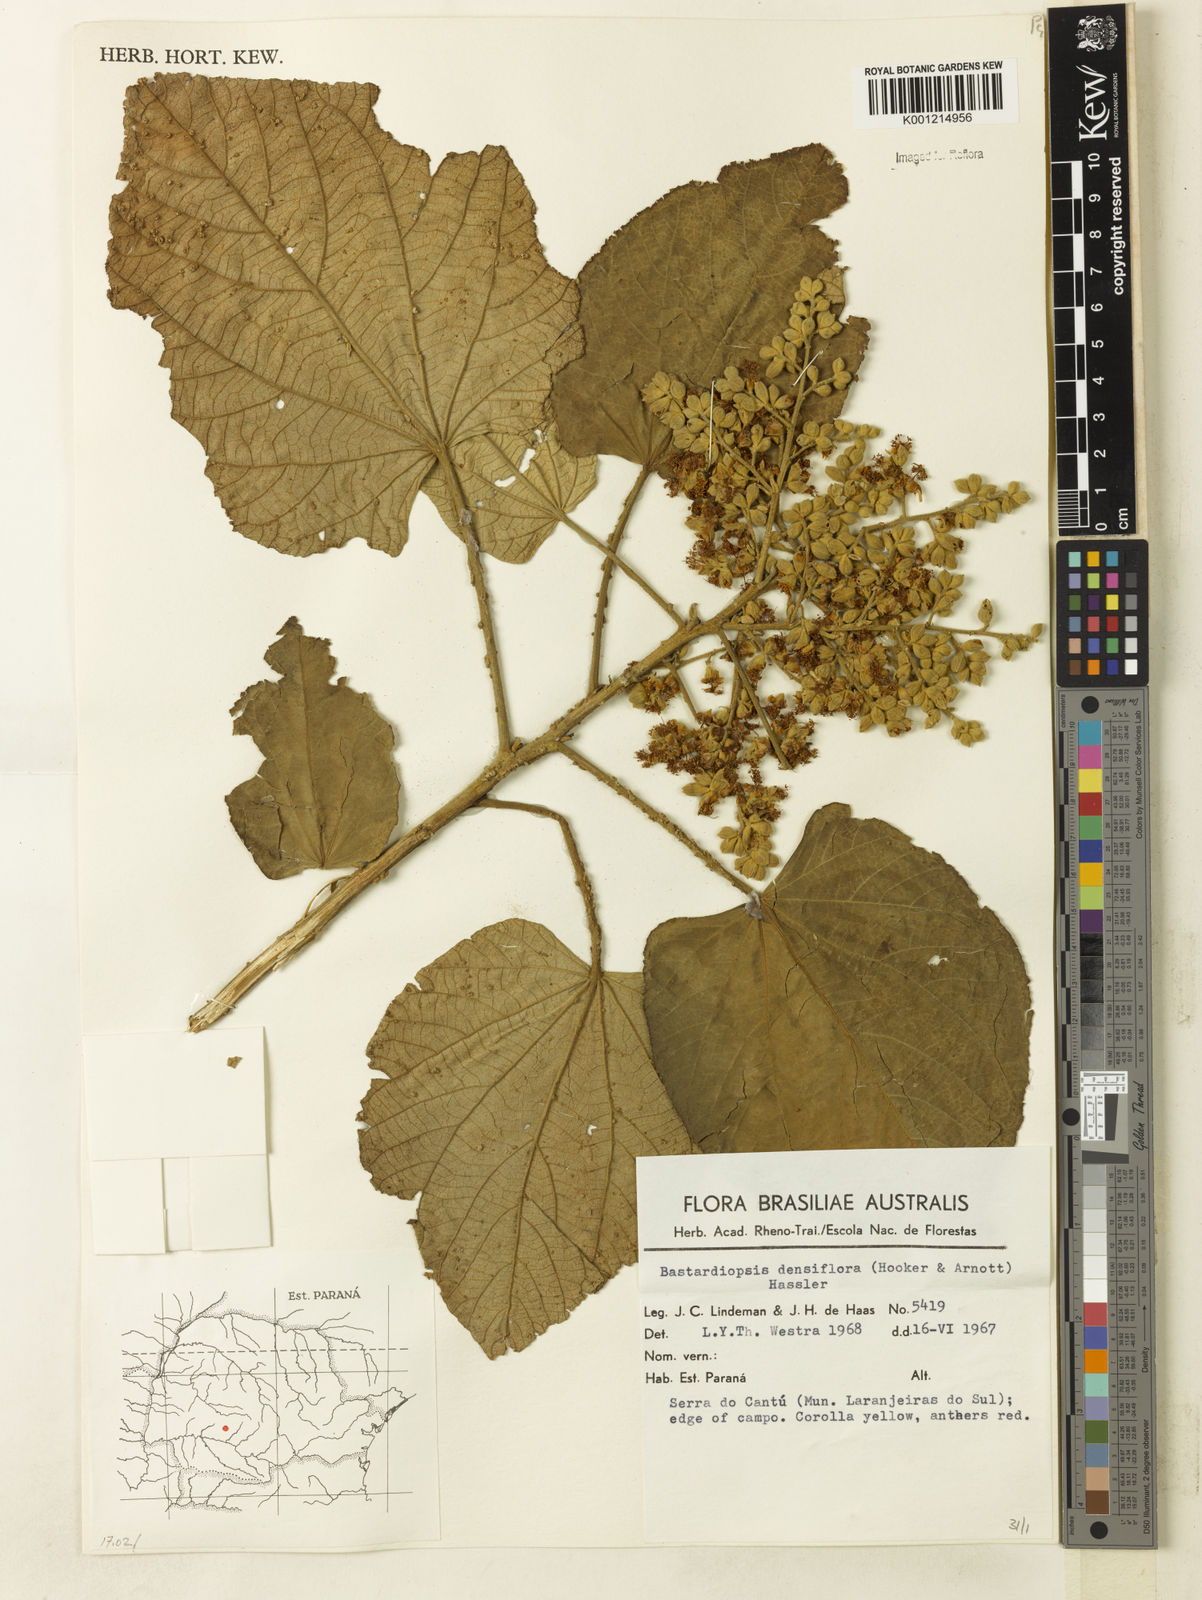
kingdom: Plantae
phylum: Tracheophyta
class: Magnoliopsida
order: Malvales
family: Malvaceae
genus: Bastardiopsis
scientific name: Bastardiopsis densiflora
